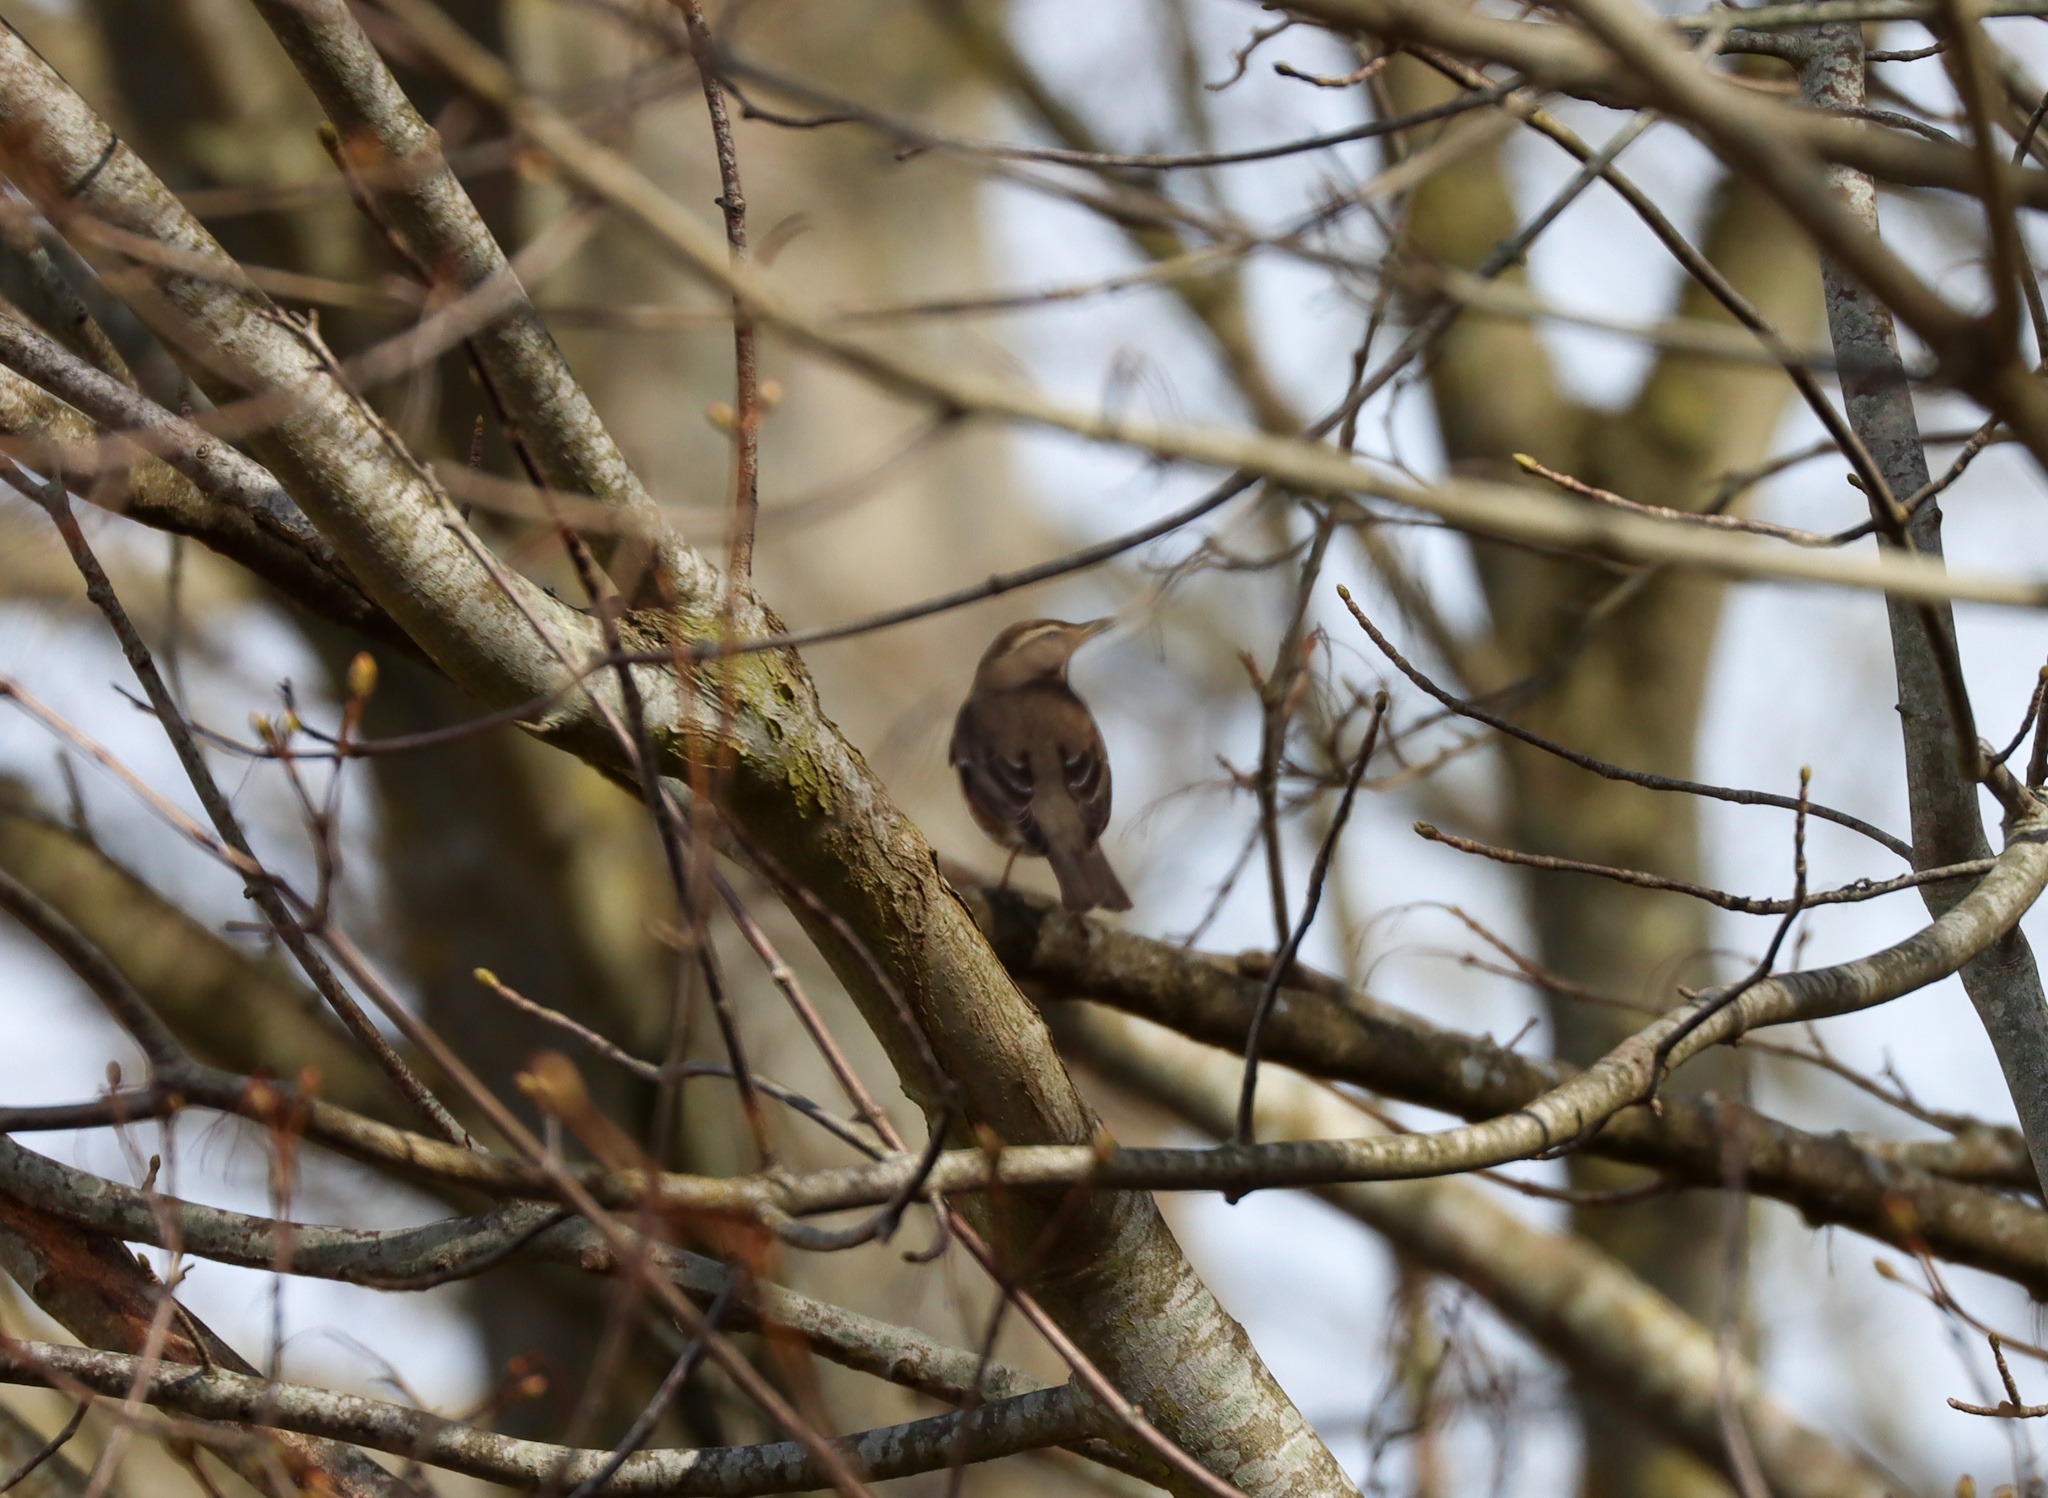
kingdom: Animalia
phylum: Chordata
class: Aves
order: Passeriformes
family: Turdidae
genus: Turdus
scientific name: Turdus iliacus
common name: Vindrossel
